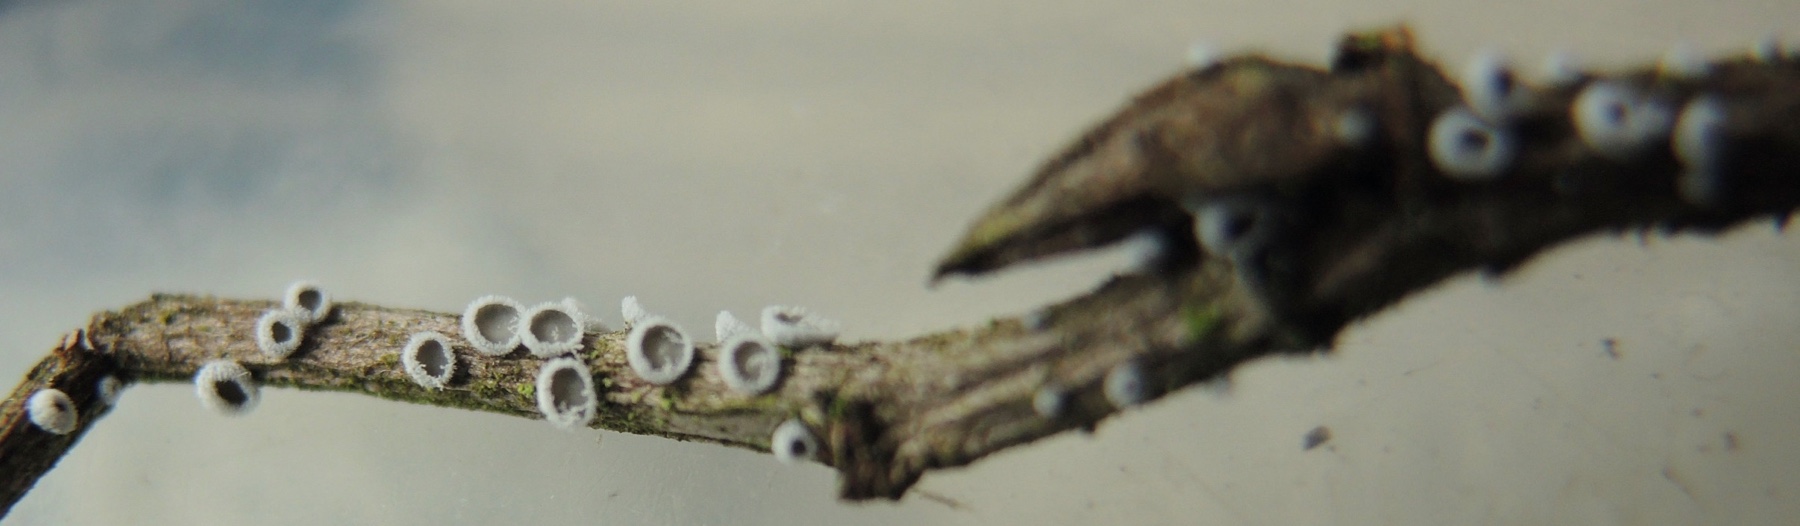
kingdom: Fungi
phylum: Basidiomycota
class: Agaricomycetes
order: Agaricales
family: Niaceae
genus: Lachnella
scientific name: Lachnella alboviolascens
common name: grå frynserede
